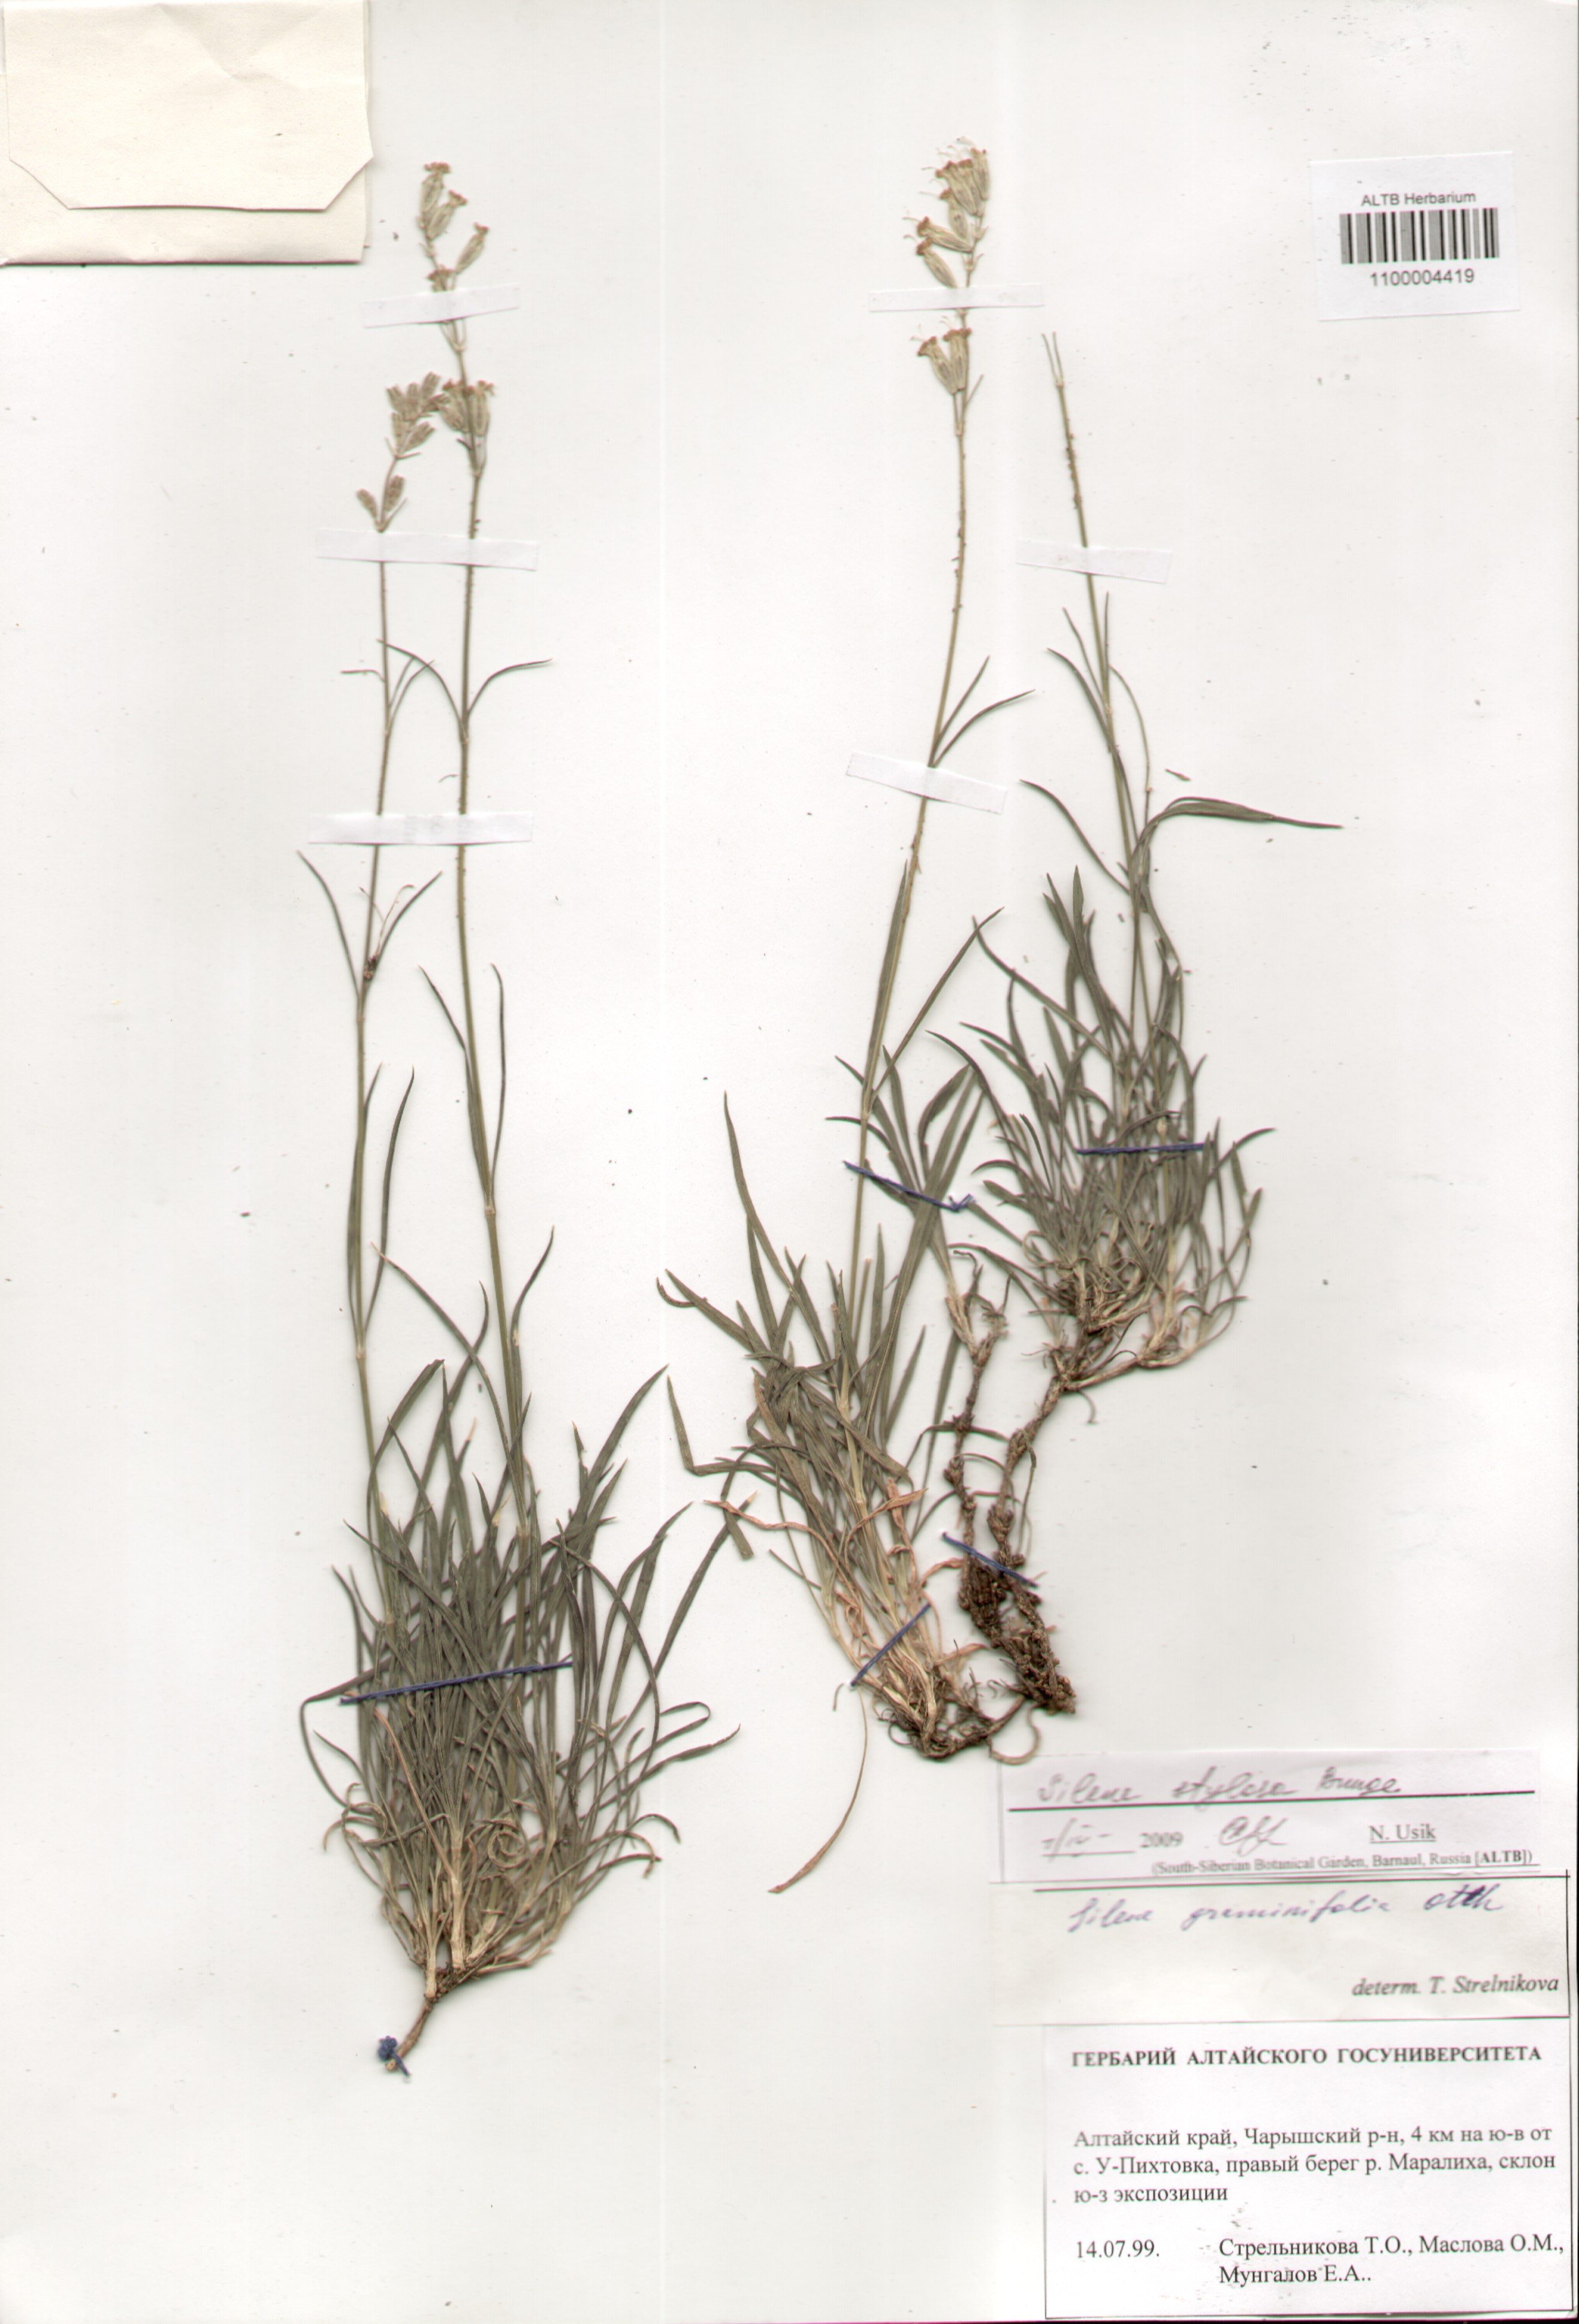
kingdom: Plantae
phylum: Tracheophyta
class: Magnoliopsida
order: Caryophyllales
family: Caryophyllaceae
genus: Silene
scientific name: Silene graminifolia
